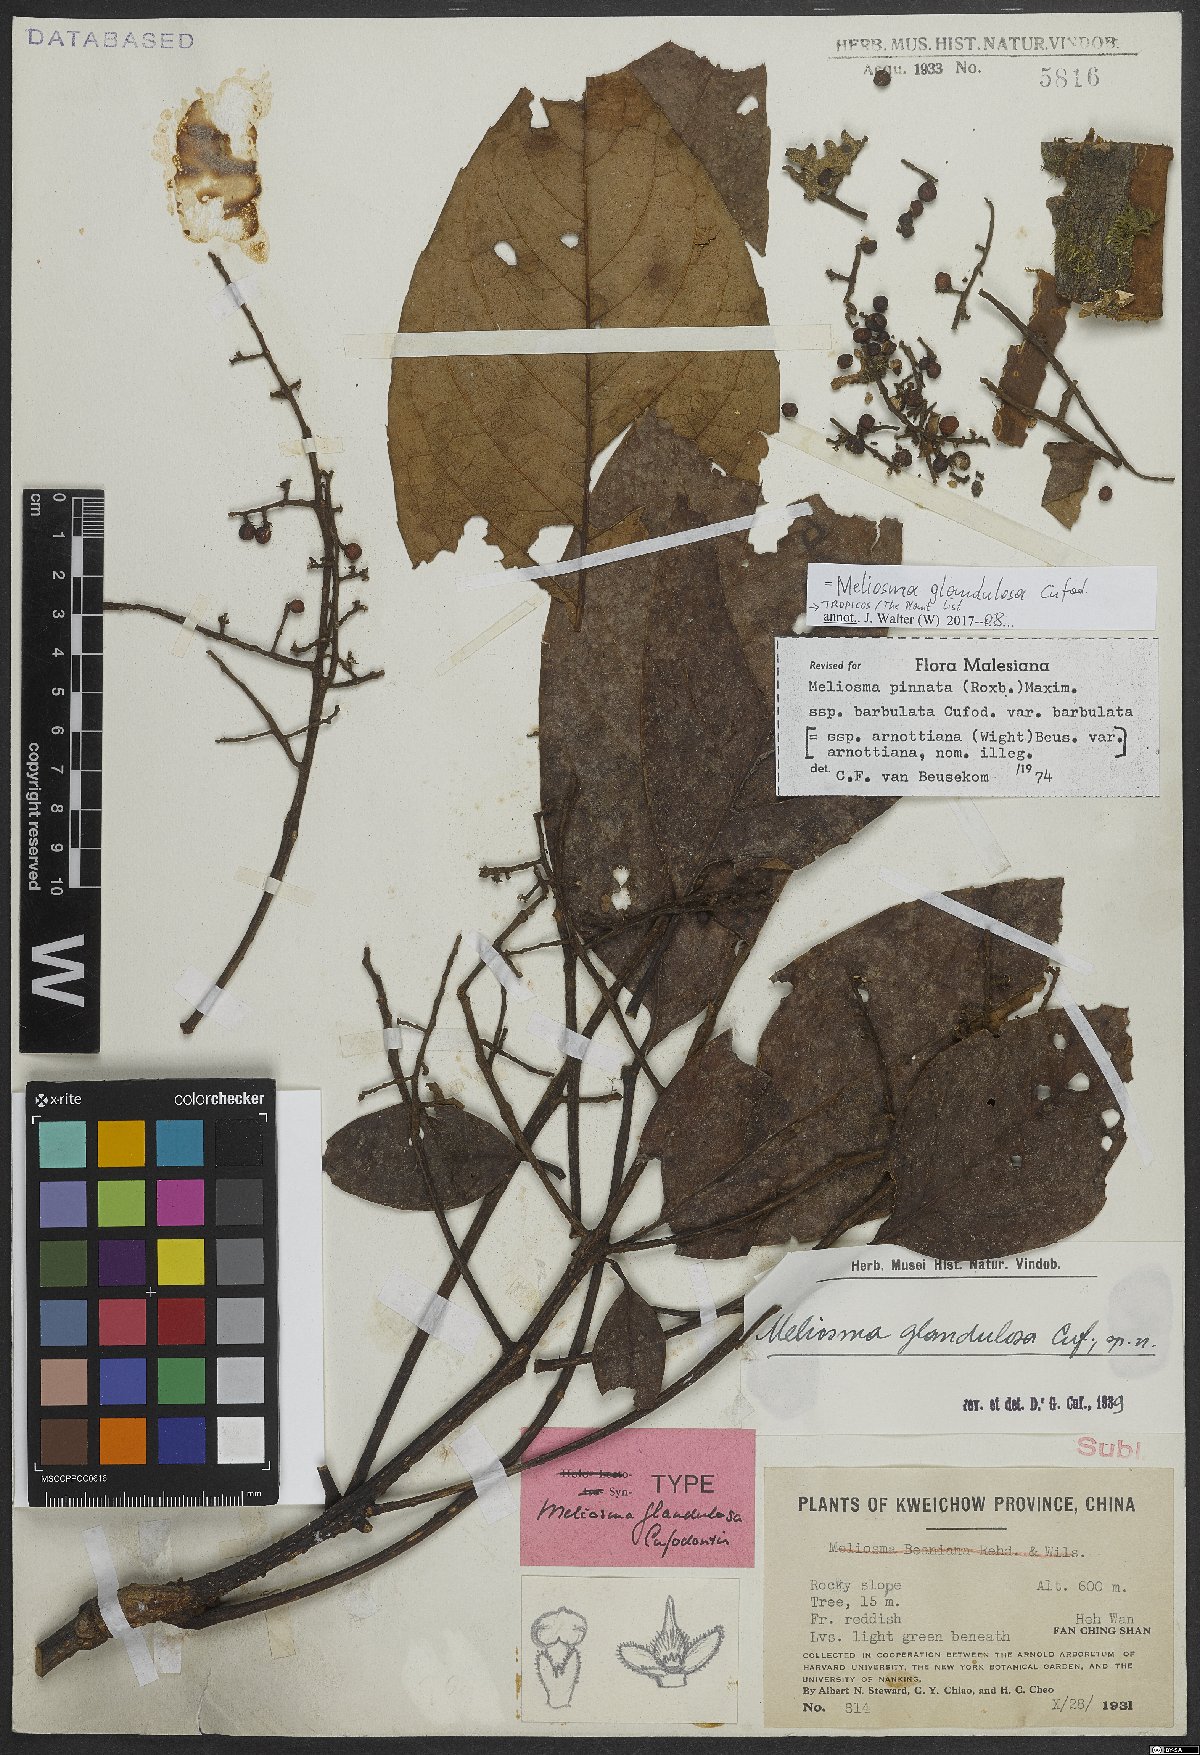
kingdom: Plantae
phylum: Tracheophyta
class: Magnoliopsida
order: Proteales
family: Sabiaceae
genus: Meliosma
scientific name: Meliosma glandulosa
